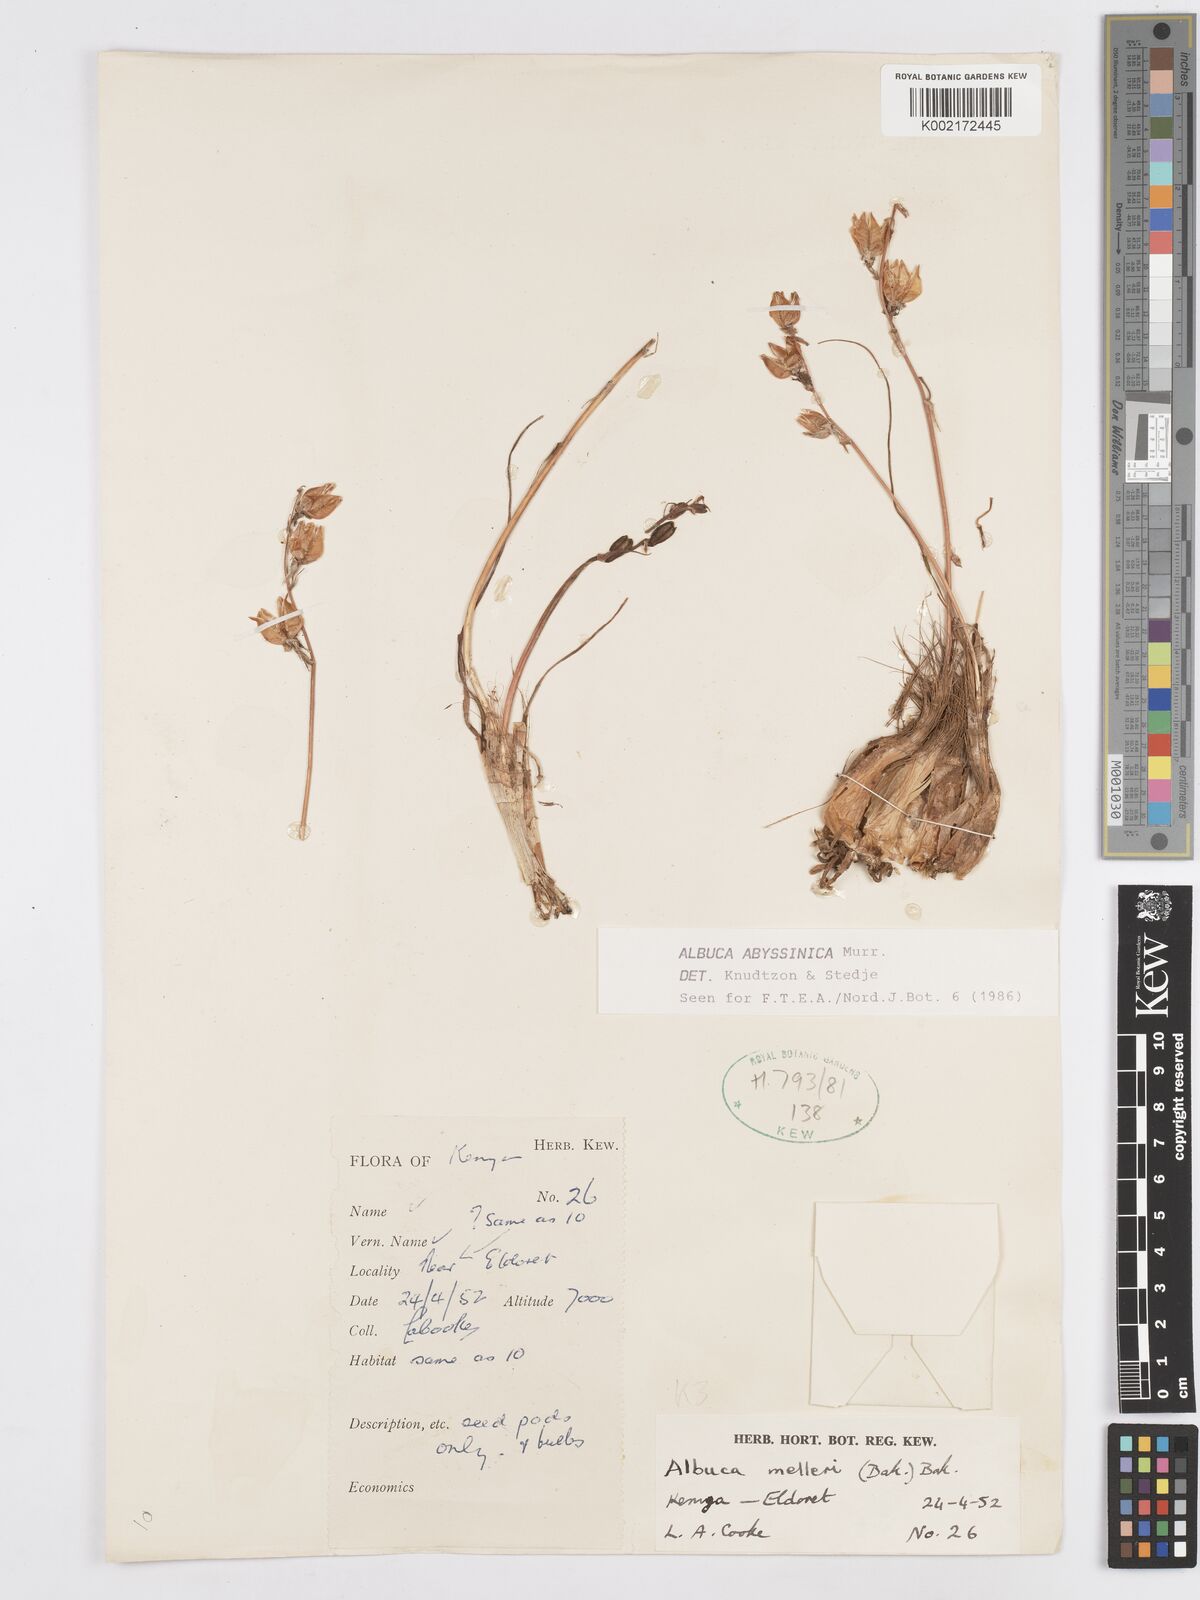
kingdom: Plantae
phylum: Tracheophyta
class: Liliopsida
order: Asparagales
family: Asparagaceae
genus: Albuca
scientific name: Albuca abyssinica
